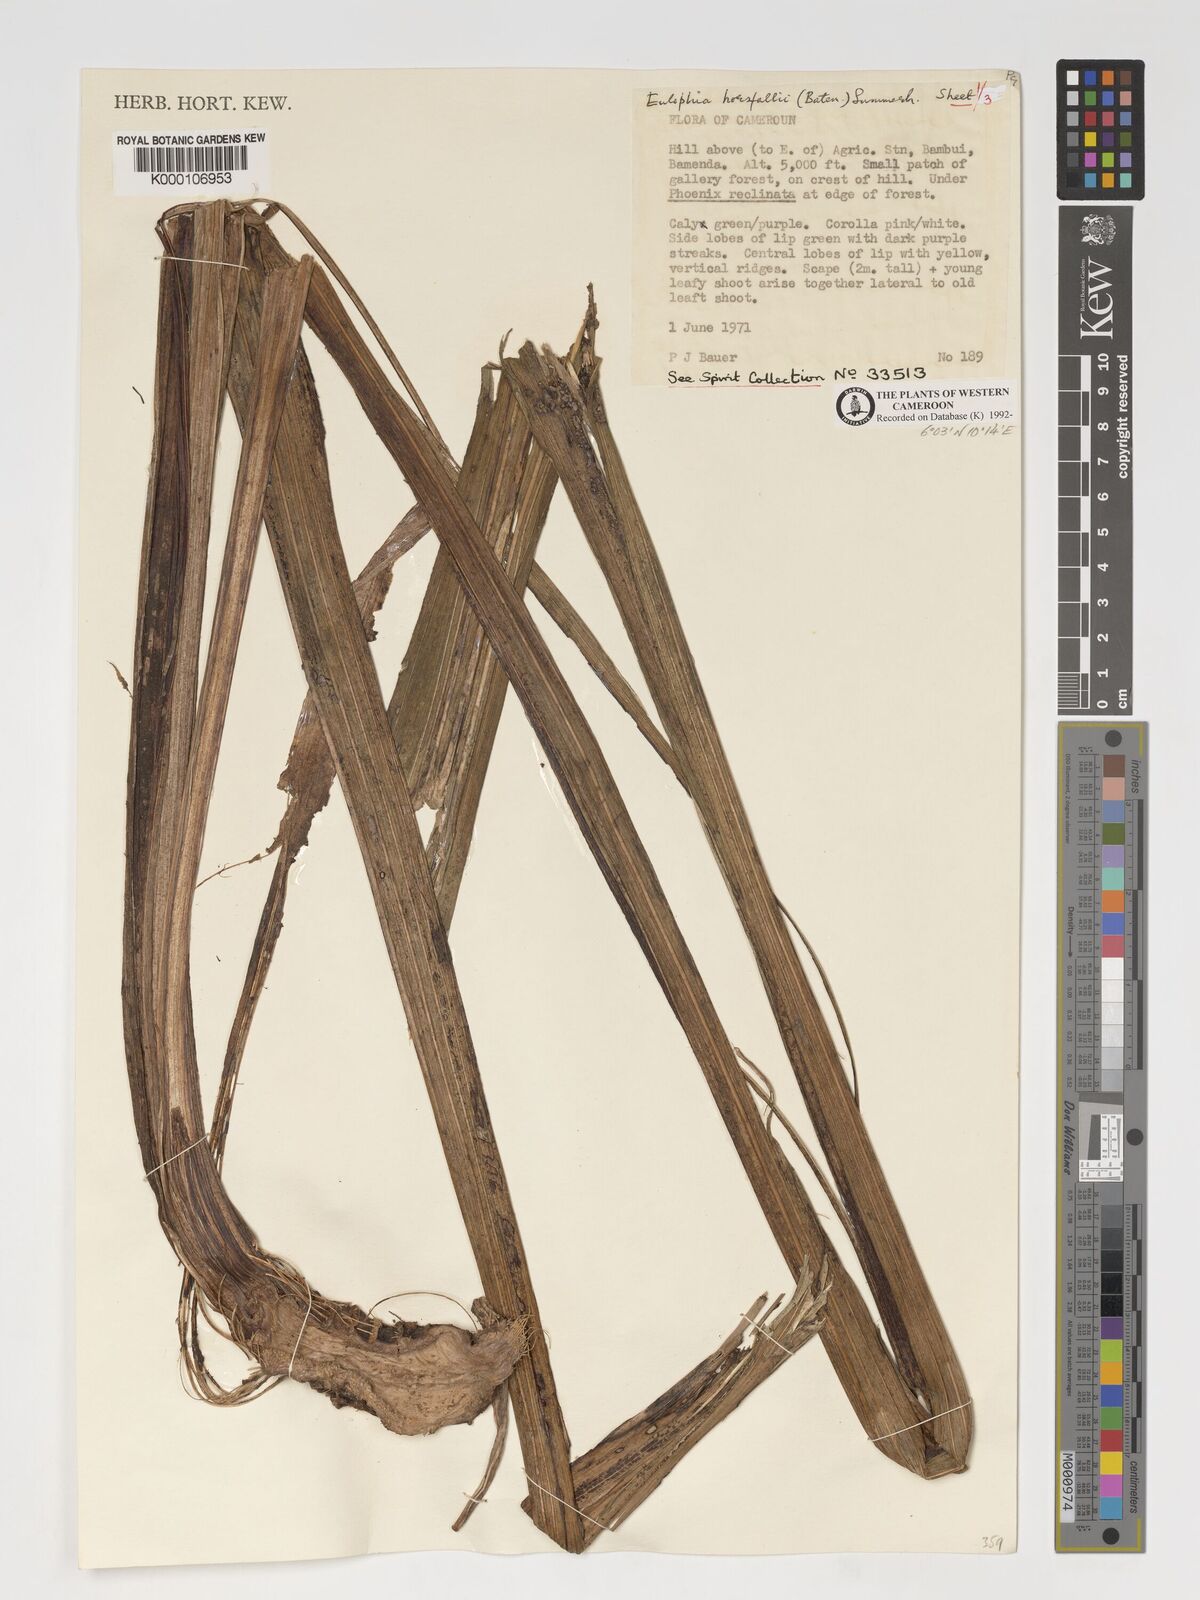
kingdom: Plantae
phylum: Tracheophyta
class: Liliopsida
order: Asparagales
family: Orchidaceae
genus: Eulophia
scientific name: Eulophia horsfallii
